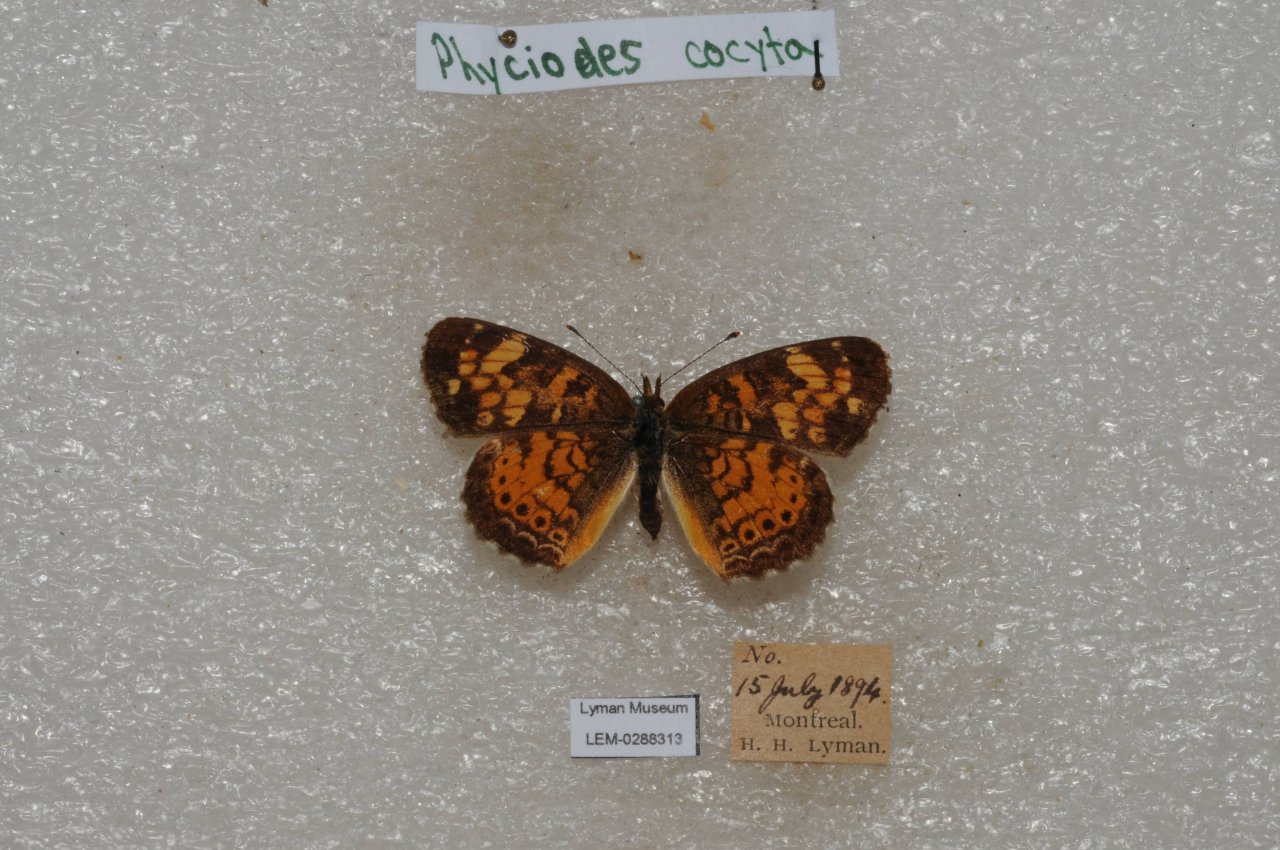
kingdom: Animalia
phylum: Arthropoda
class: Insecta
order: Lepidoptera
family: Nymphalidae
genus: Phyciodes
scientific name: Phyciodes tharos
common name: Northern Crescent
